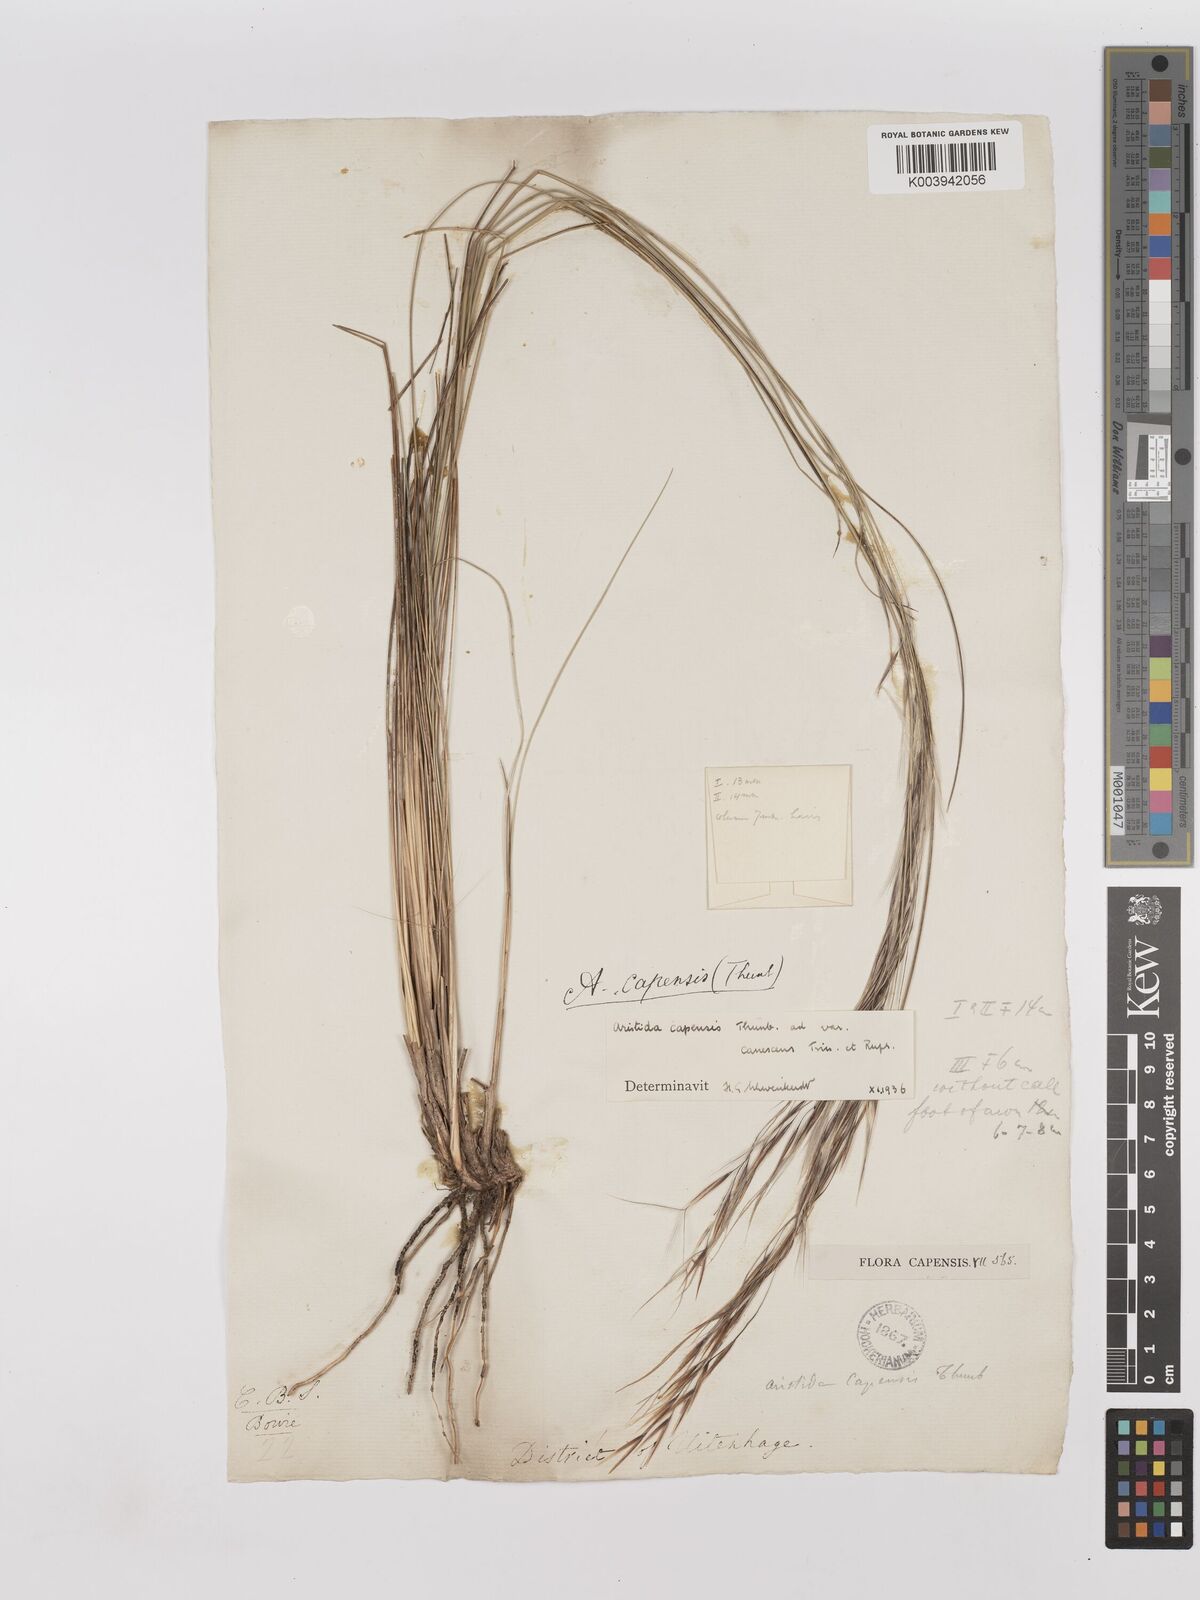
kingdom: Plantae
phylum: Tracheophyta
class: Liliopsida
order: Poales
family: Poaceae
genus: Stipagrostis
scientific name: Stipagrostis zeyheri
